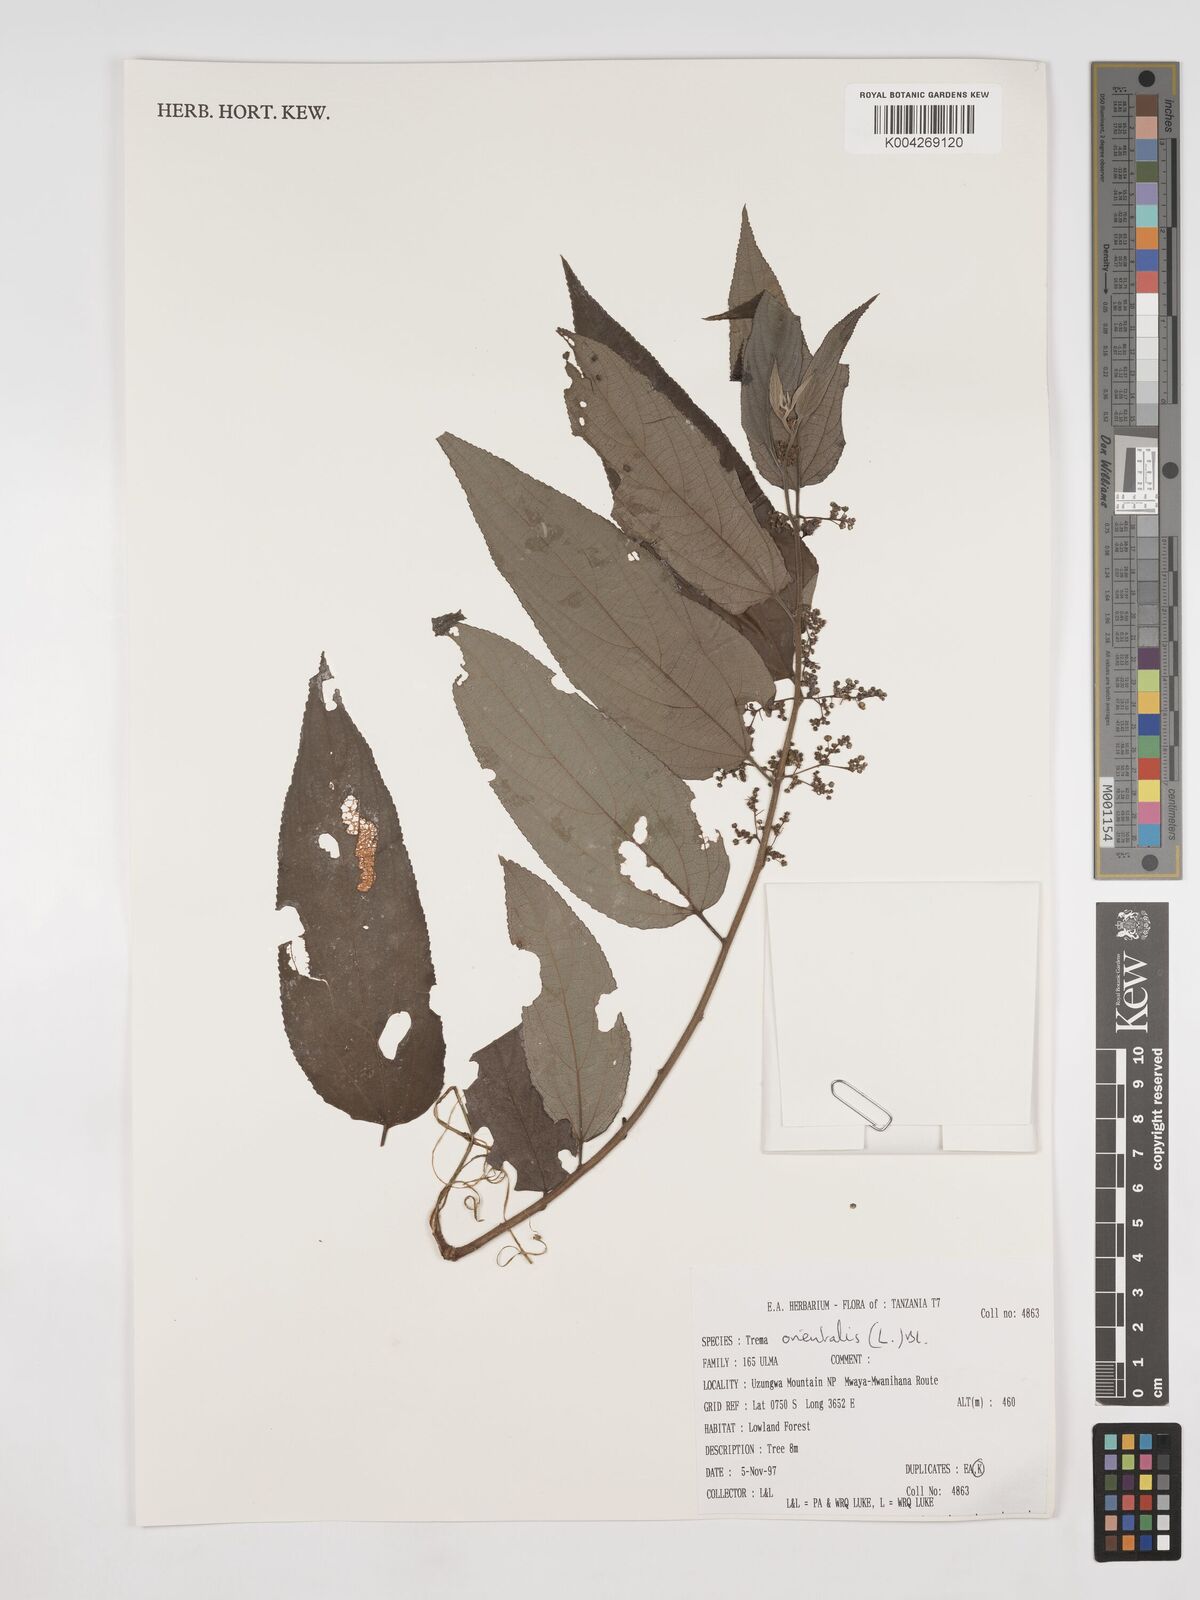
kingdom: Plantae
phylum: Tracheophyta
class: Magnoliopsida
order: Rosales
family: Cannabaceae
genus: Trema
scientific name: Trema orientale
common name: Indian charcoal tree
